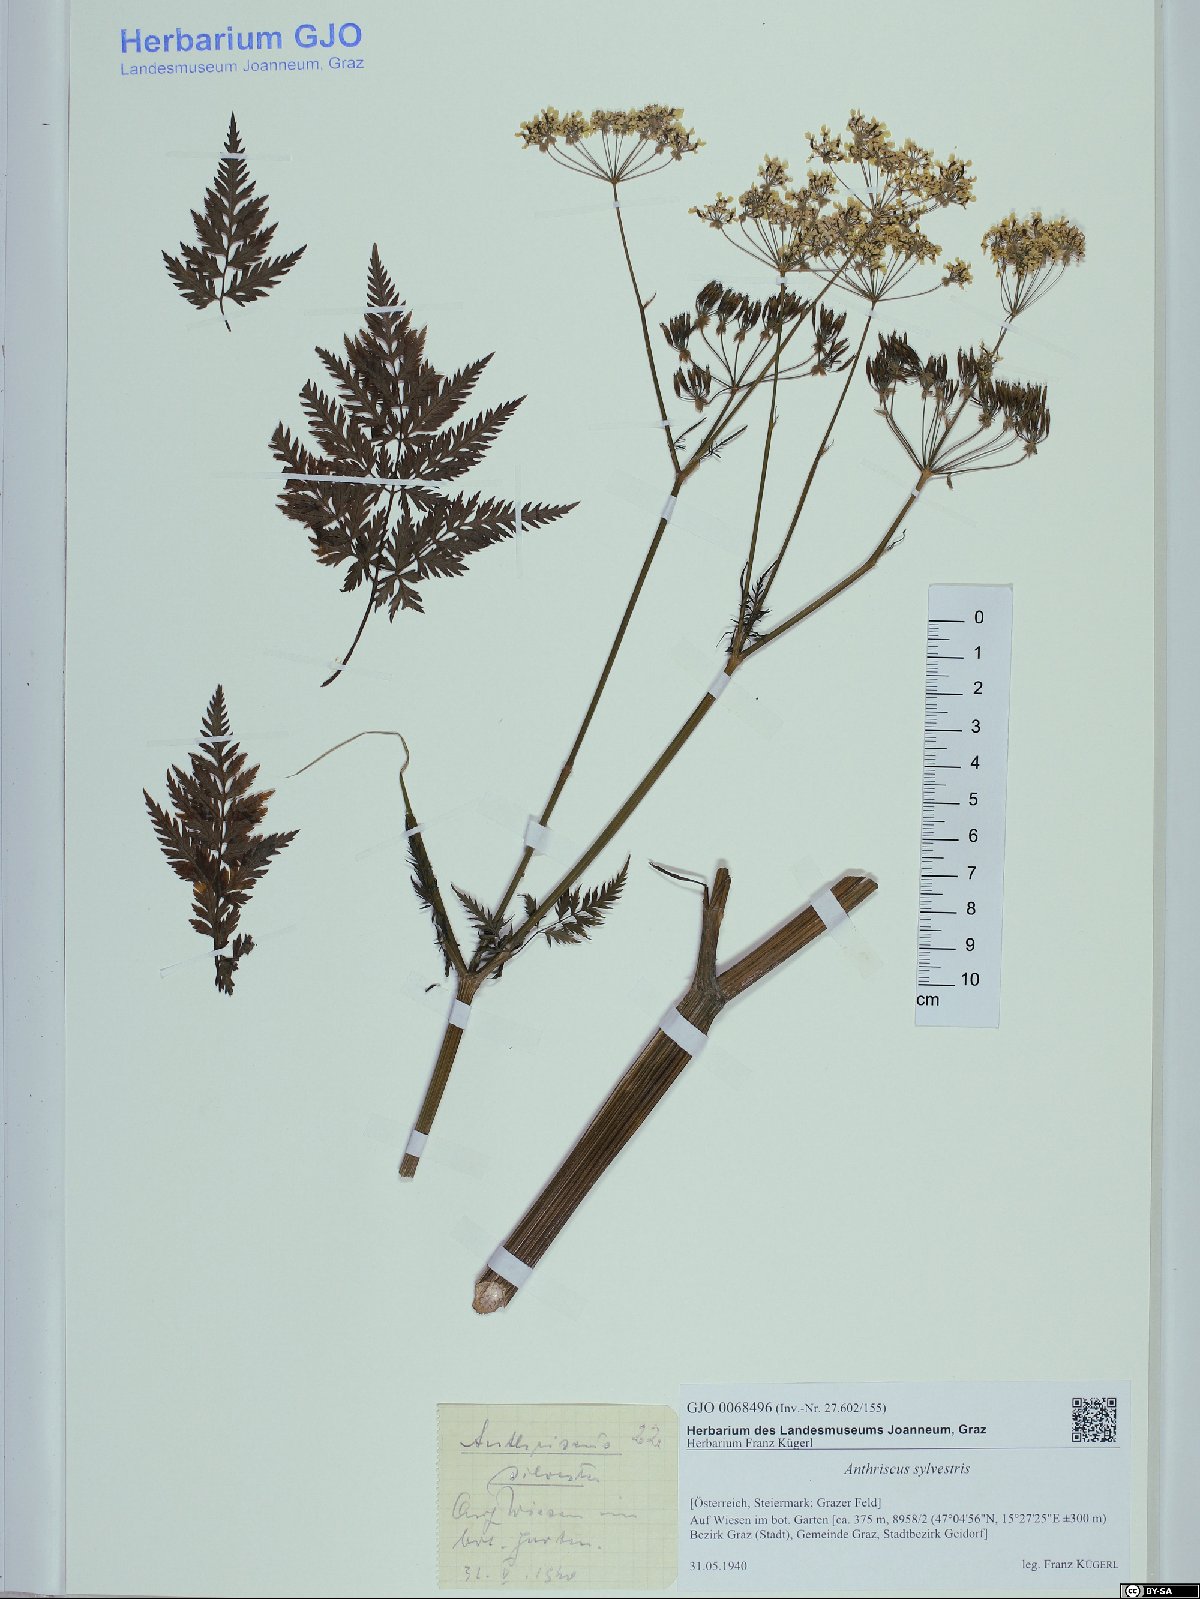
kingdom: Plantae
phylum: Tracheophyta
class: Magnoliopsida
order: Apiales
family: Apiaceae
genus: Anthriscus
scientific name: Anthriscus sylvestris
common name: Cow parsley
